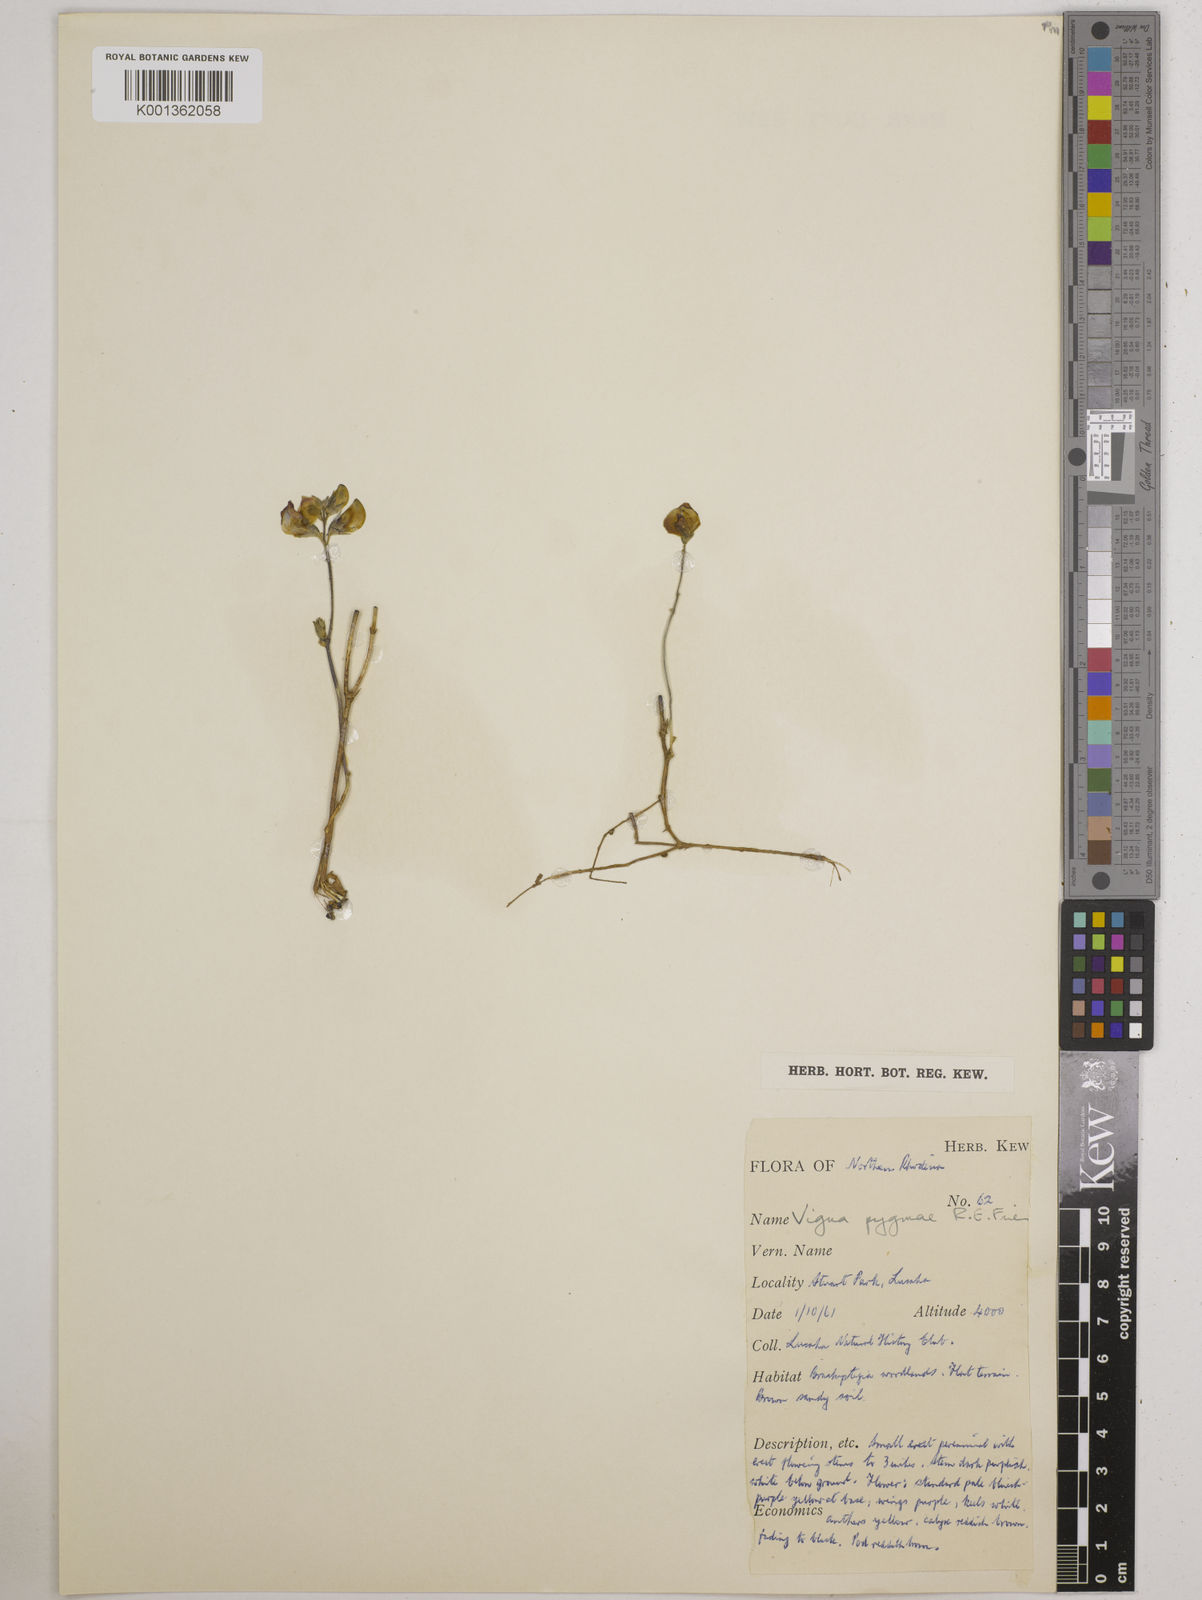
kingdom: Plantae
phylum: Tracheophyta
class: Magnoliopsida
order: Fabales
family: Fabaceae
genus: Vigna
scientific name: Vigna pygmaea
